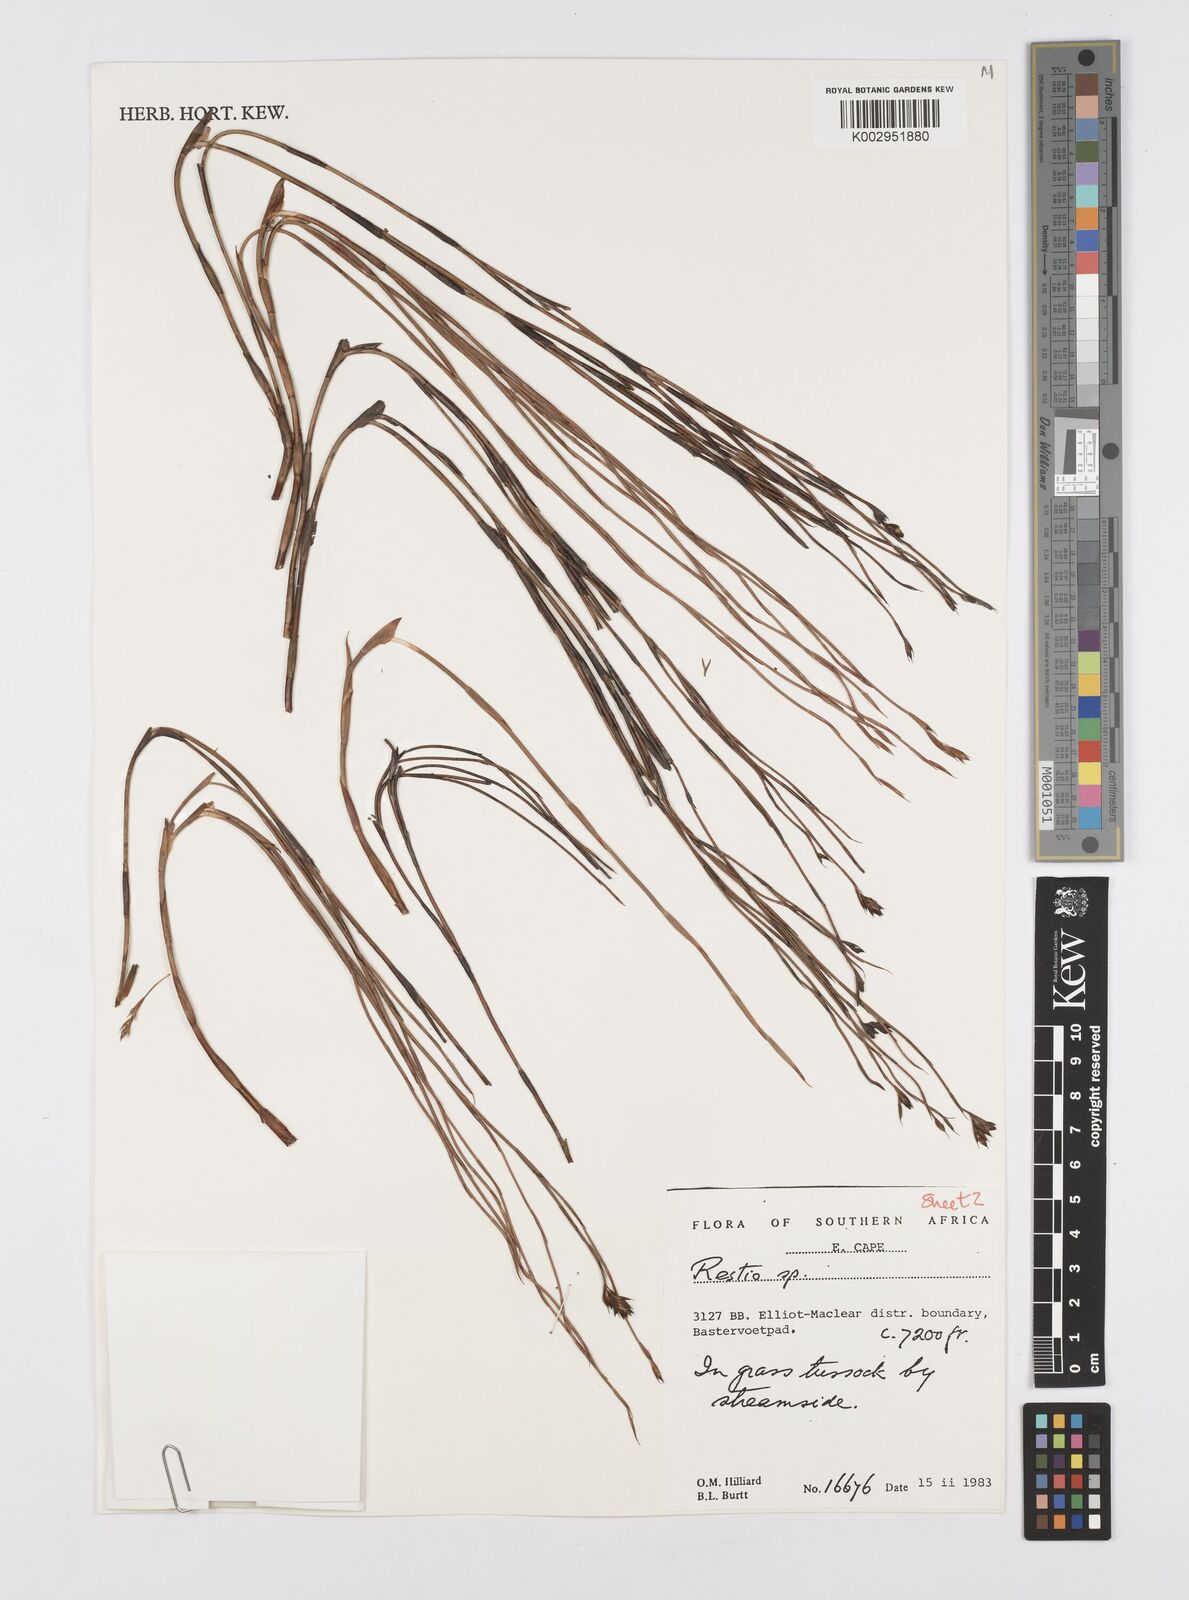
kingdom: Plantae
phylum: Tracheophyta
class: Liliopsida
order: Poales
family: Restionaceae
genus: Restio
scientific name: Restio
